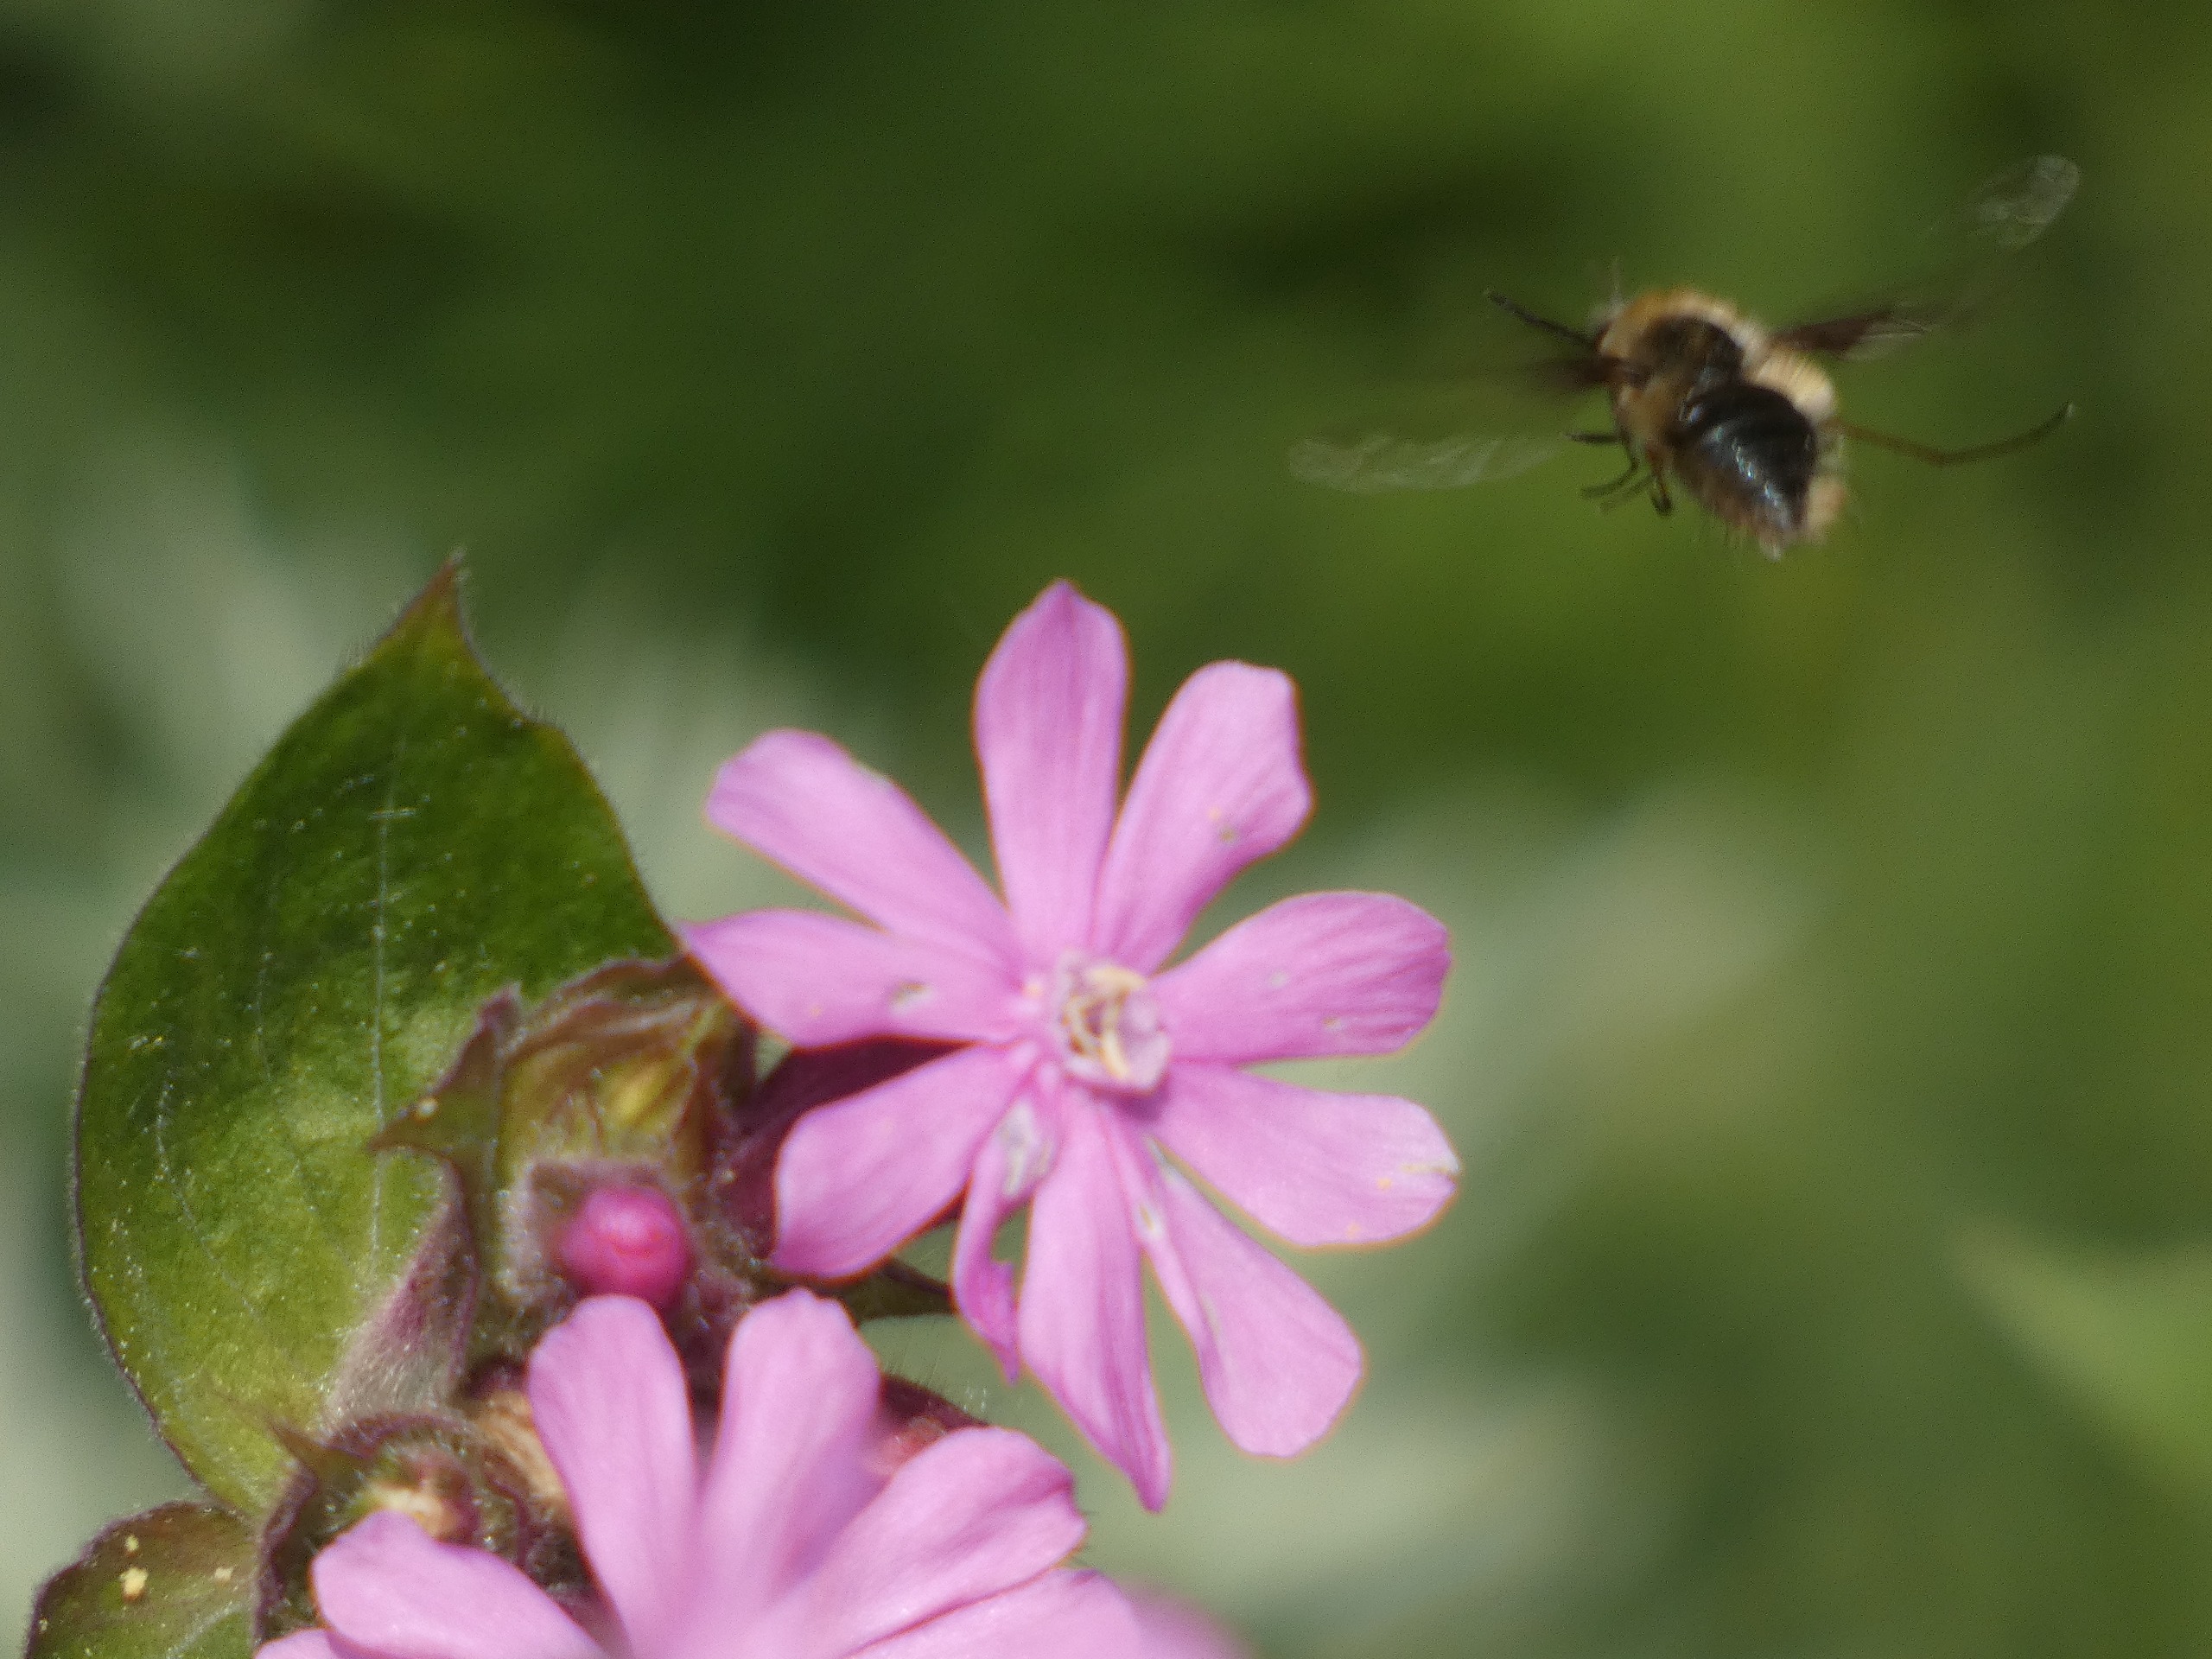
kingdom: Animalia
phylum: Arthropoda
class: Insecta
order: Diptera
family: Bombyliidae
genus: Bombylius
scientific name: Bombylius major
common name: Stor humleflue
